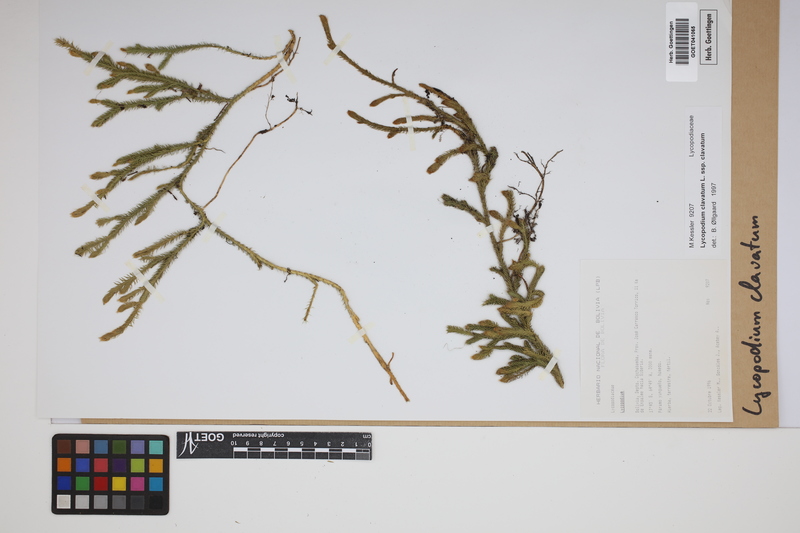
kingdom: Plantae
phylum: Tracheophyta
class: Lycopodiopsida
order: Lycopodiales
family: Lycopodiaceae
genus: Lycopodium
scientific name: Lycopodium clavatum
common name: Stag's-horn clubmoss
